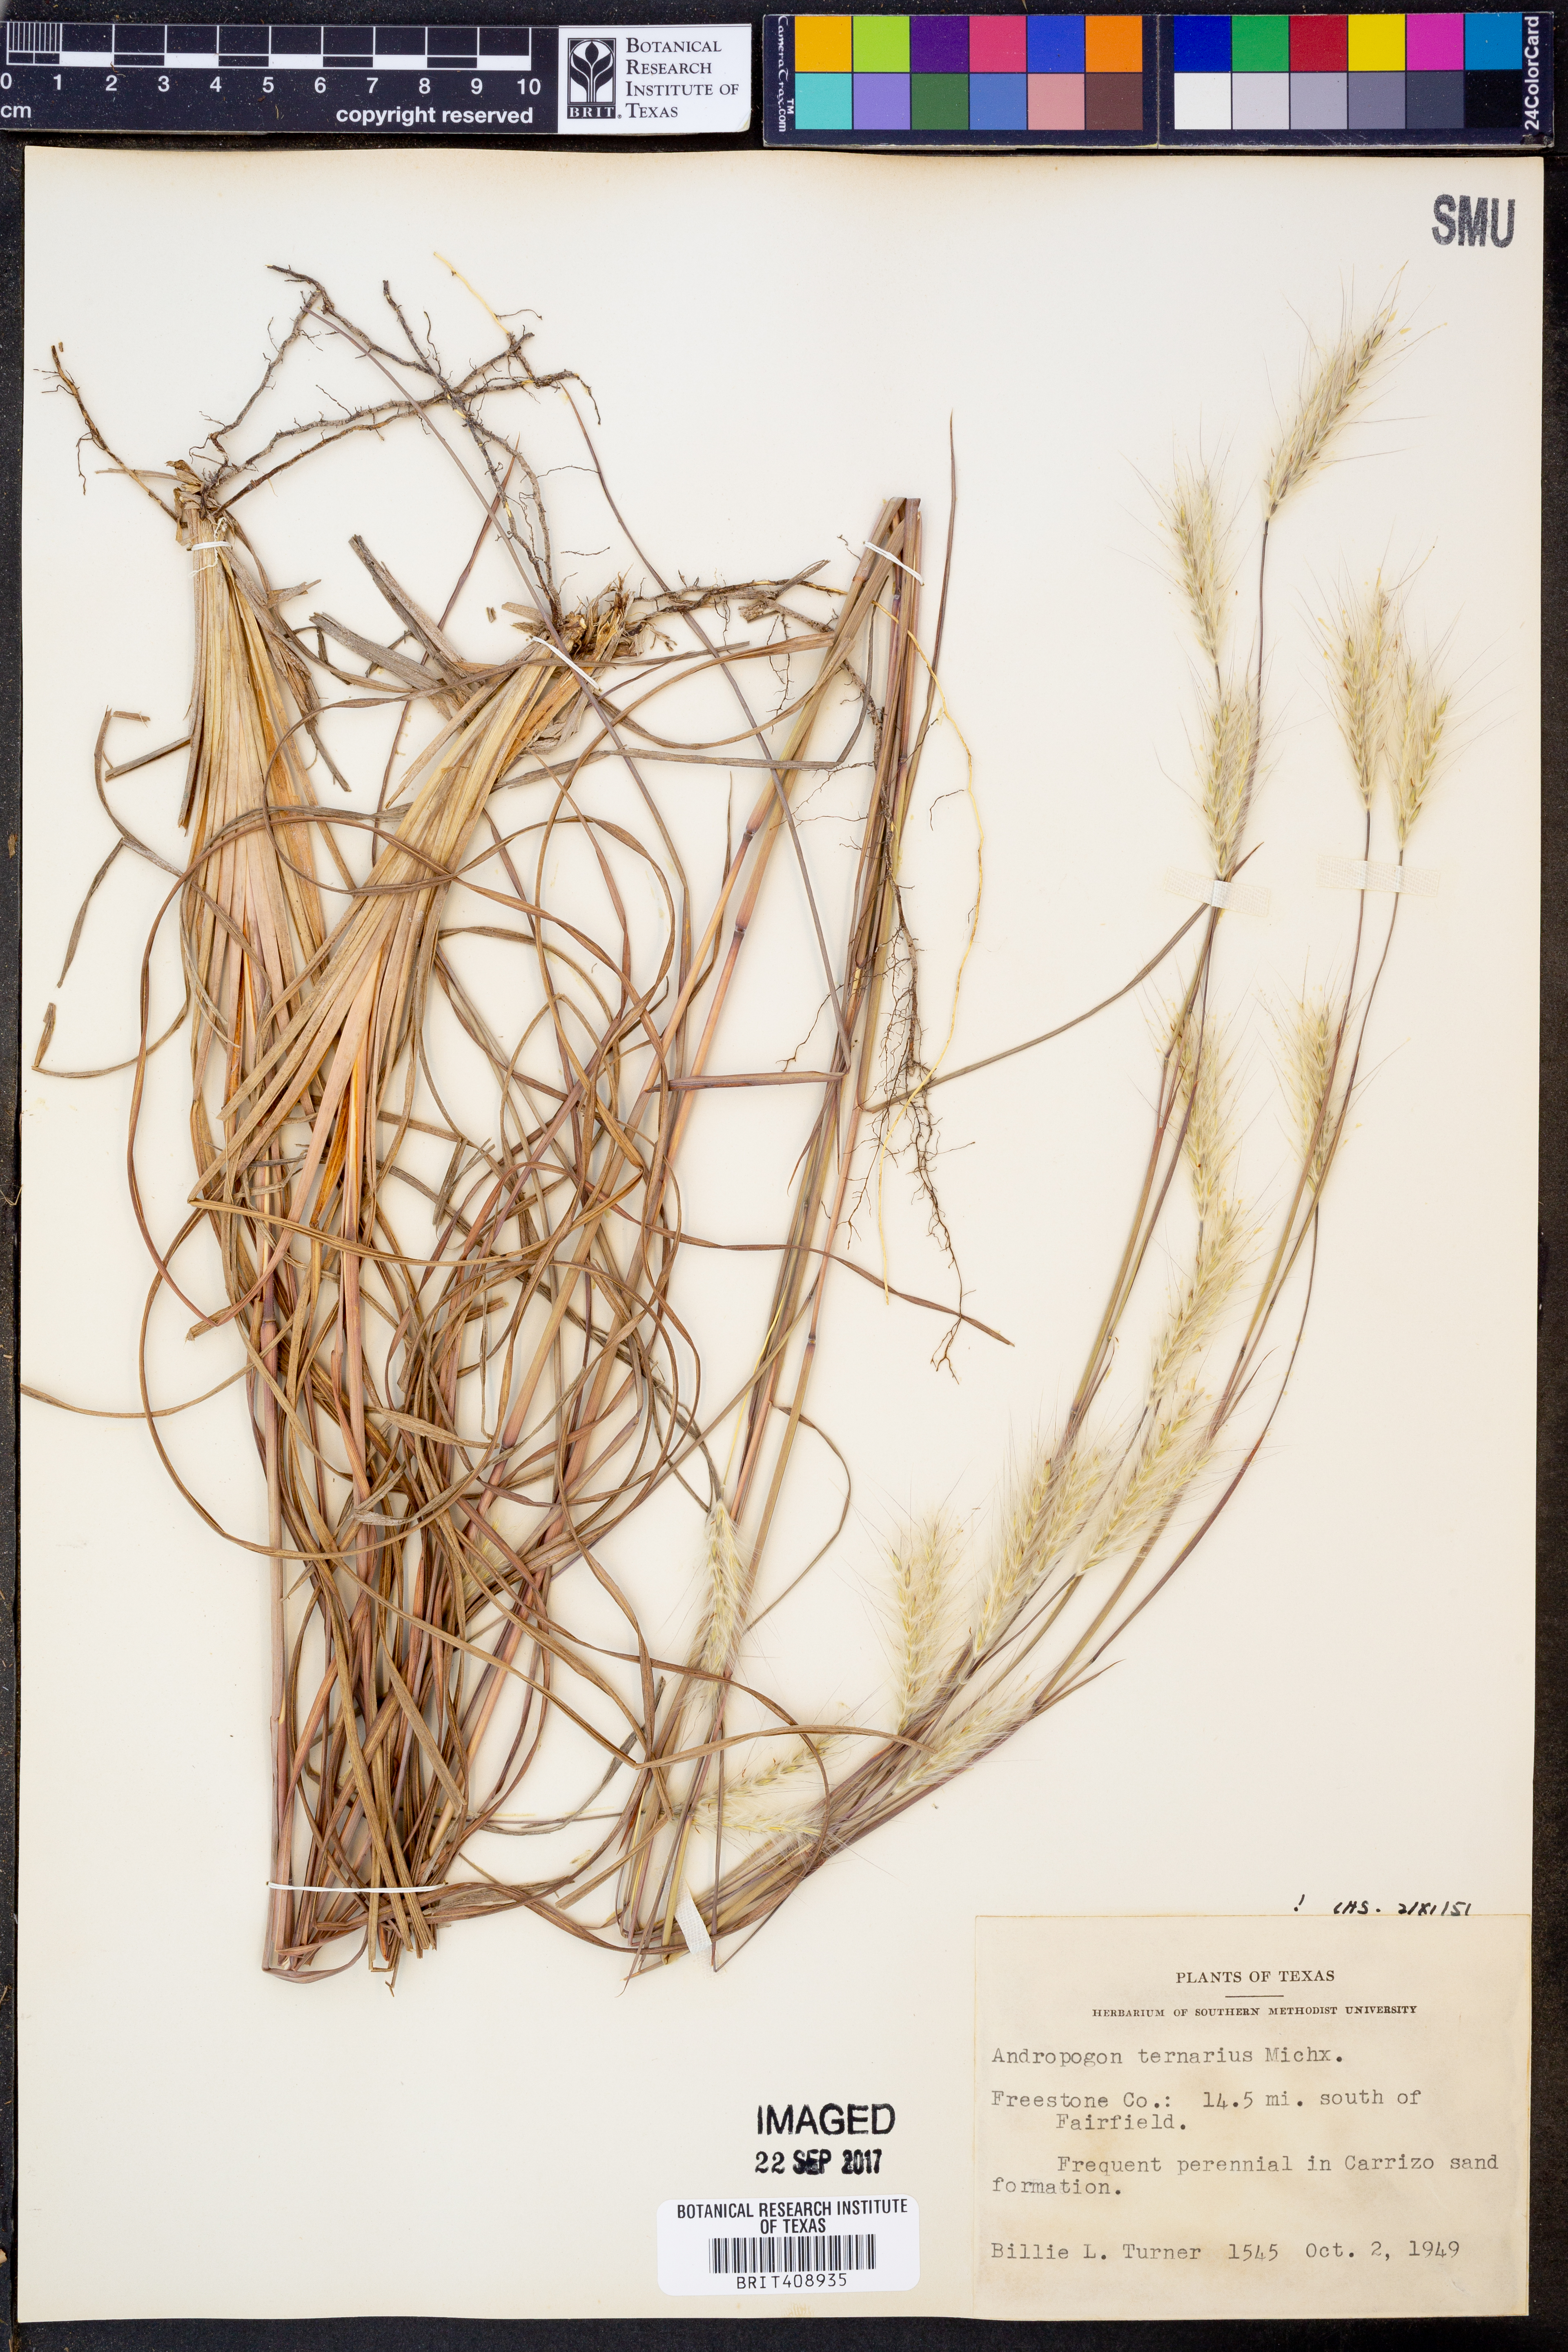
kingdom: Plantae
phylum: Tracheophyta
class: Liliopsida
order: Poales
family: Poaceae
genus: Andropogon
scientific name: Andropogon ternarius
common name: Split bluestem
